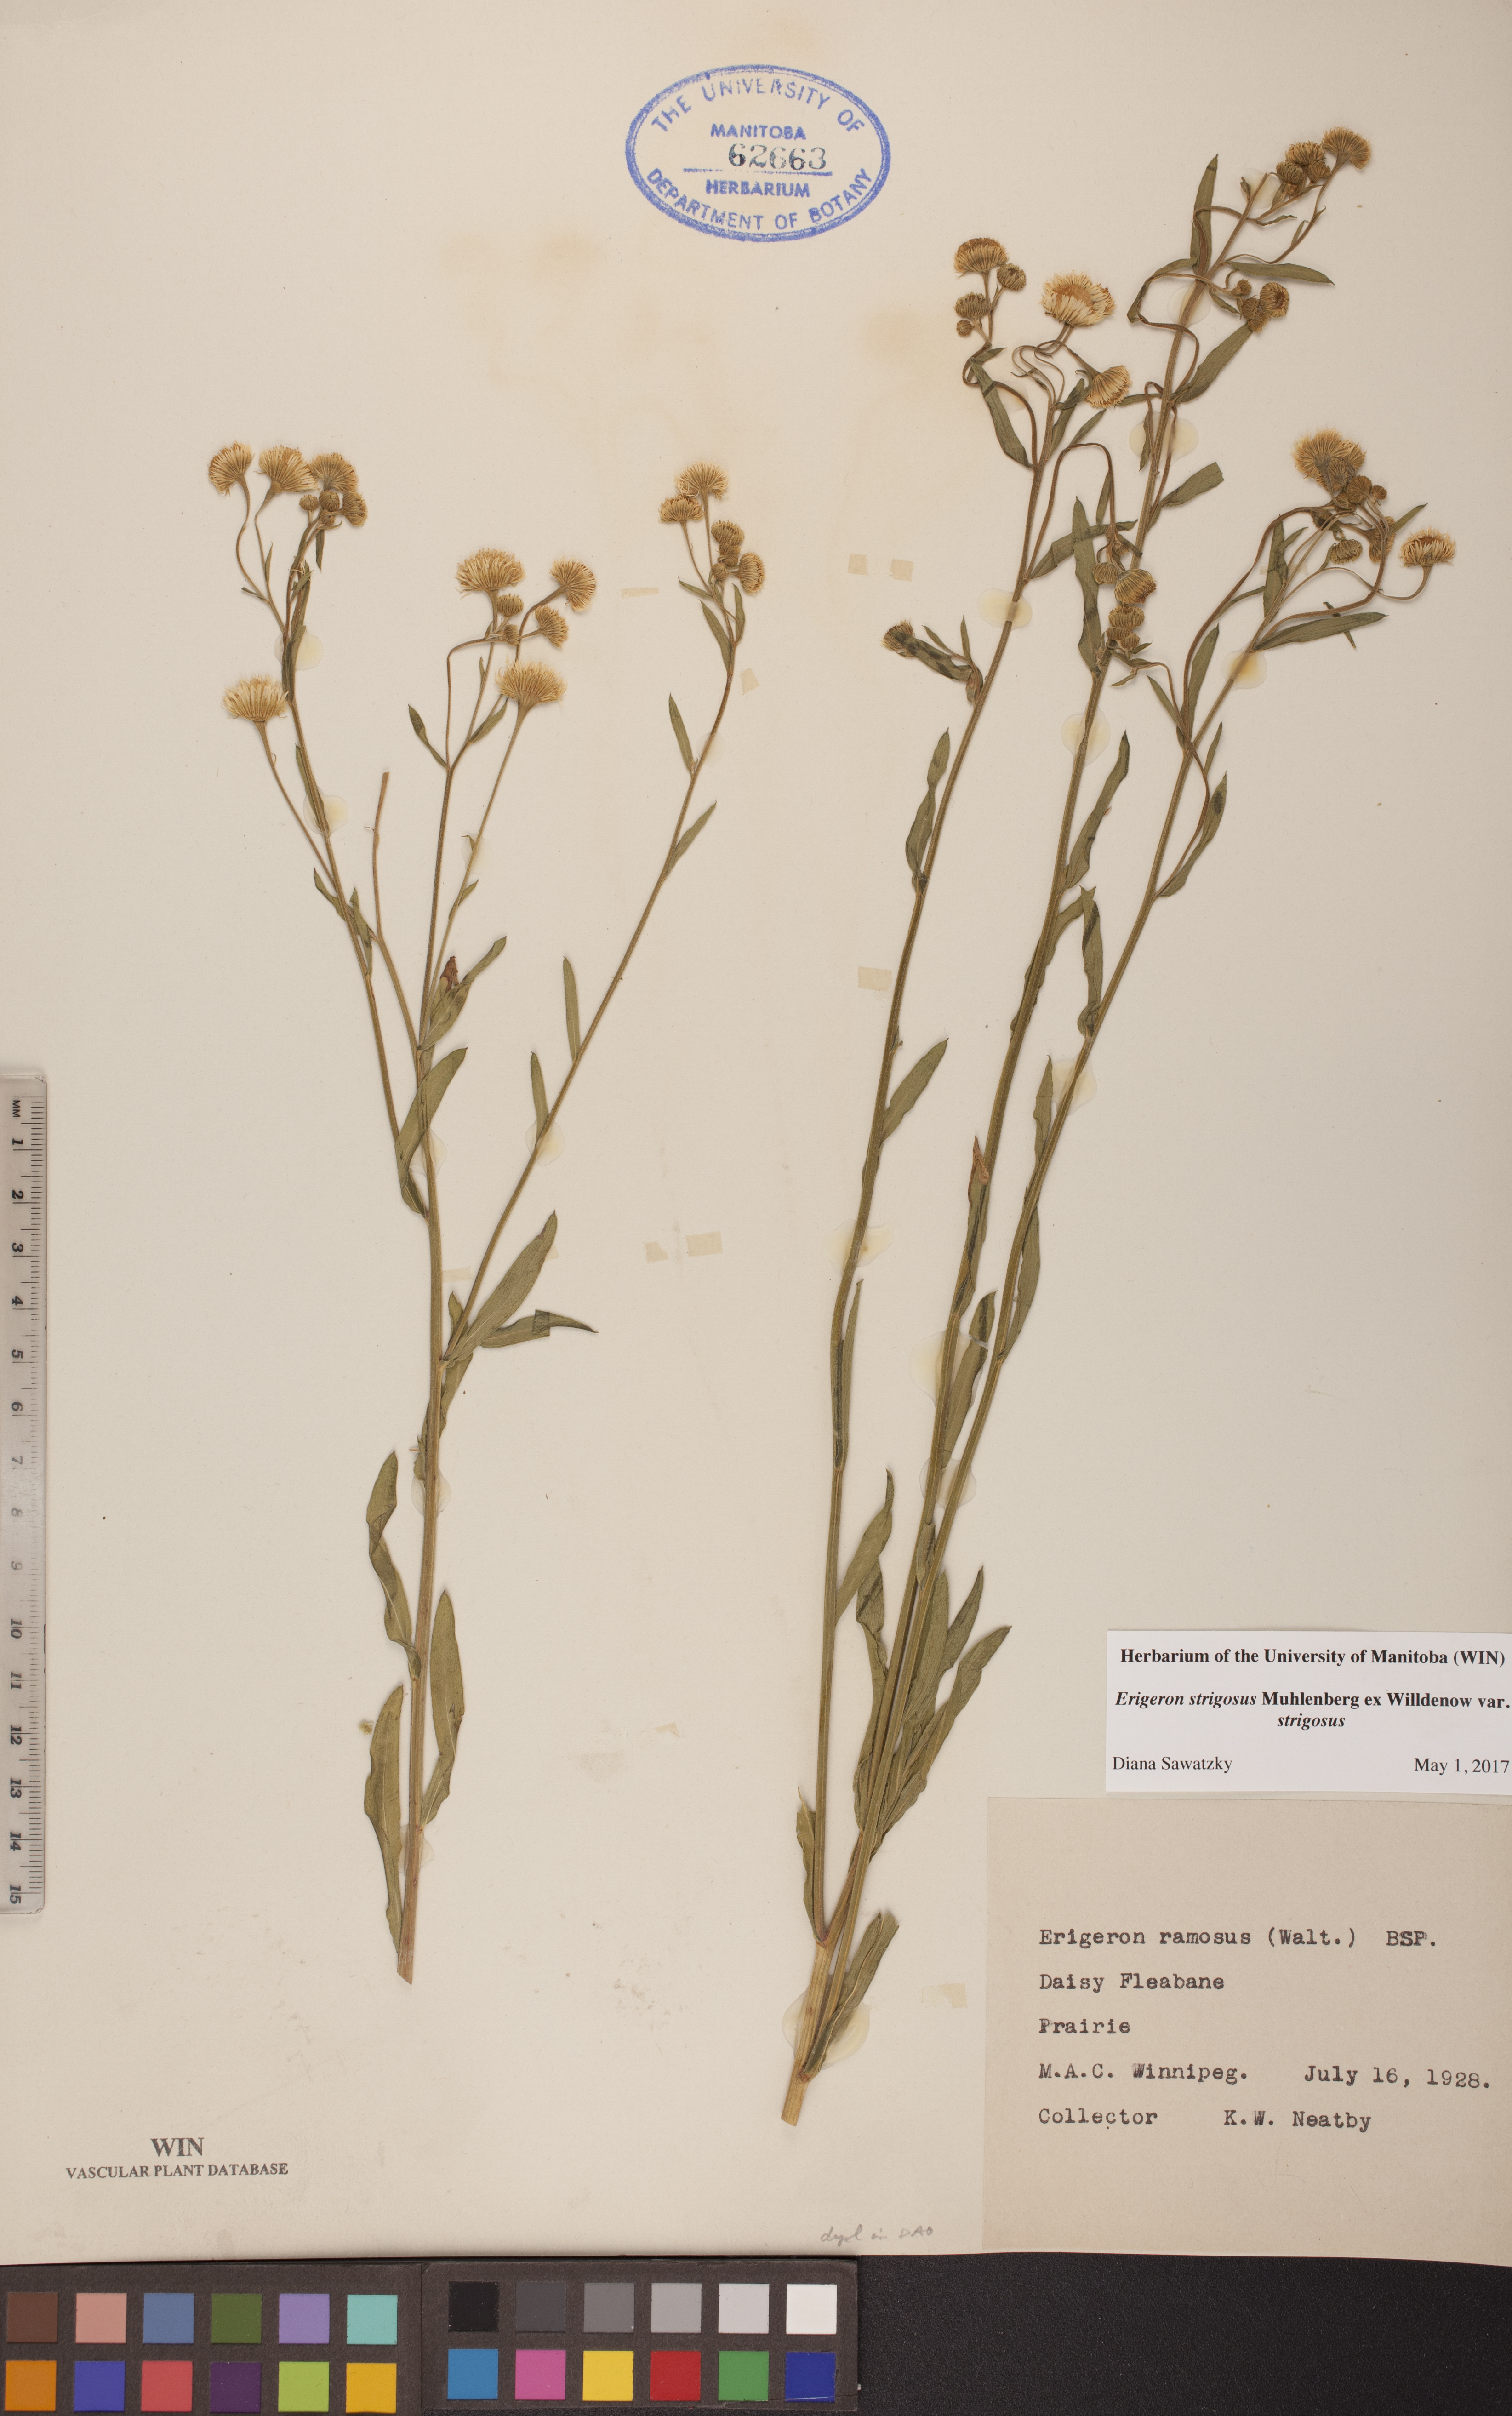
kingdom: Plantae
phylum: Tracheophyta
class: Magnoliopsida
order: Asterales
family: Asteraceae
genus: Erigeron
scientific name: Erigeron strigosus
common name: Common eastern fleabane
